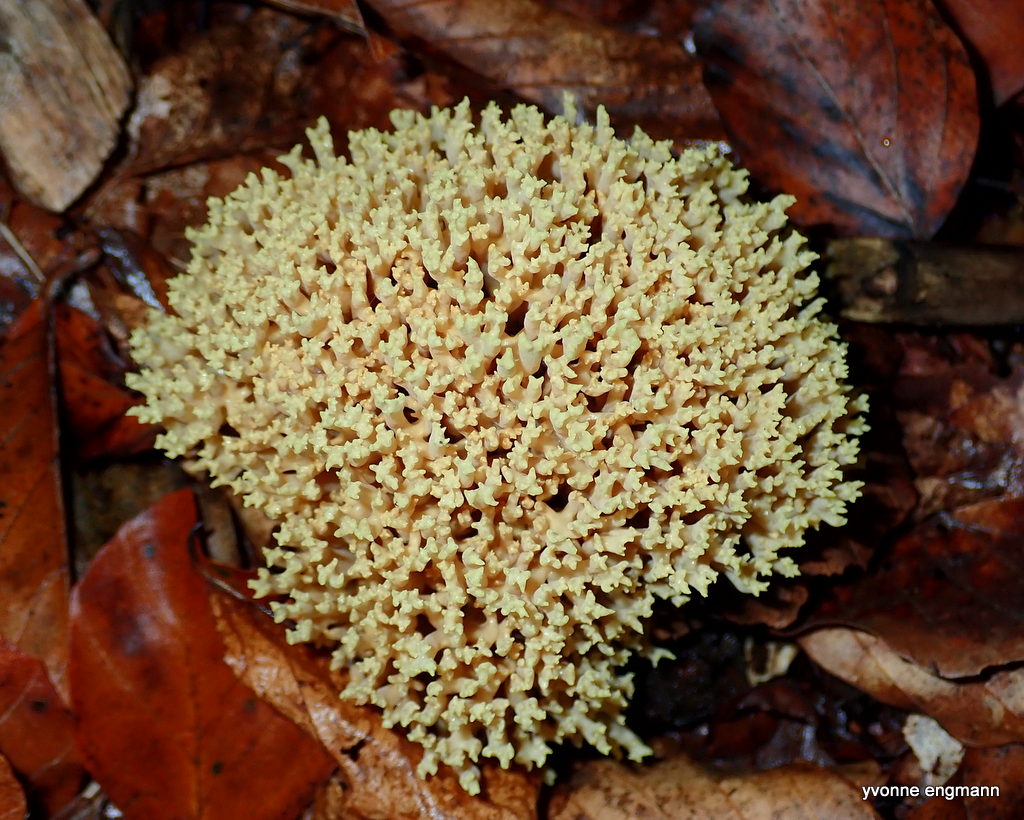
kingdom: Fungi
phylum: Basidiomycota
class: Agaricomycetes
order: Gomphales
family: Gomphaceae
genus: Ramaria
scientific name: Ramaria stricta
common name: rank koralsvamp
